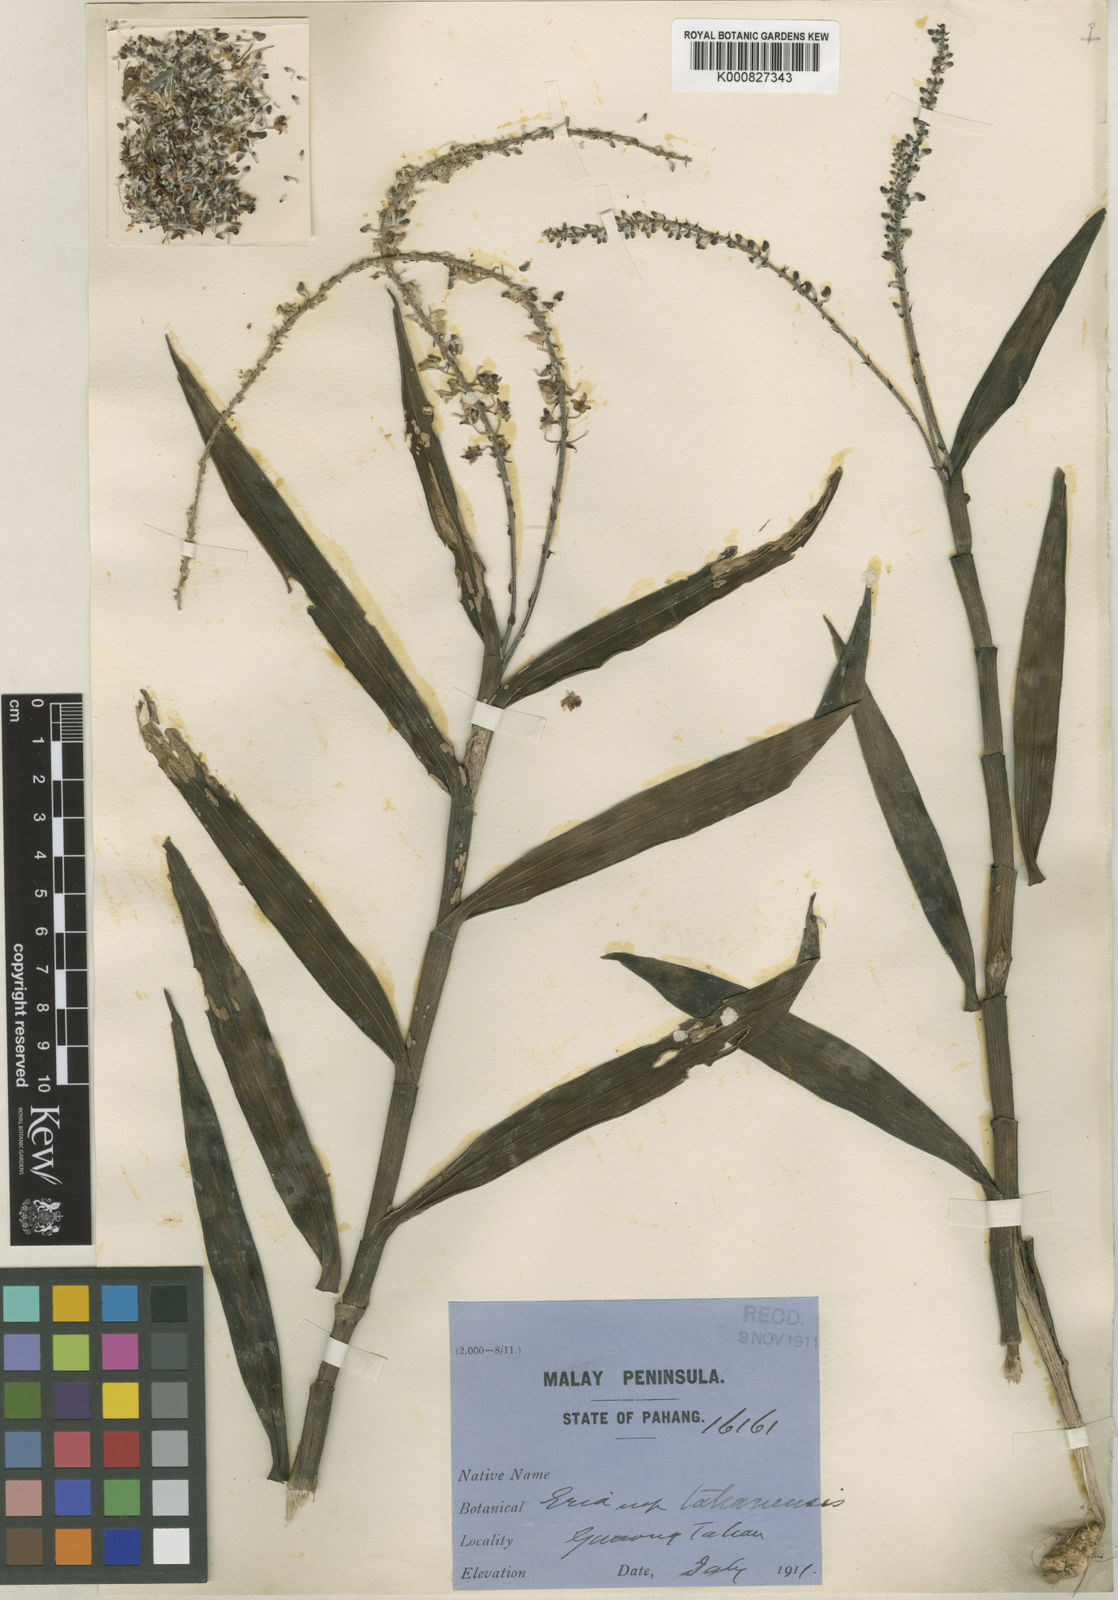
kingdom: Plantae
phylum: Tracheophyta
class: Liliopsida
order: Asparagales
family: Orchidaceae
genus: Mycaranthes
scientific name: Mycaranthes oblitterata
